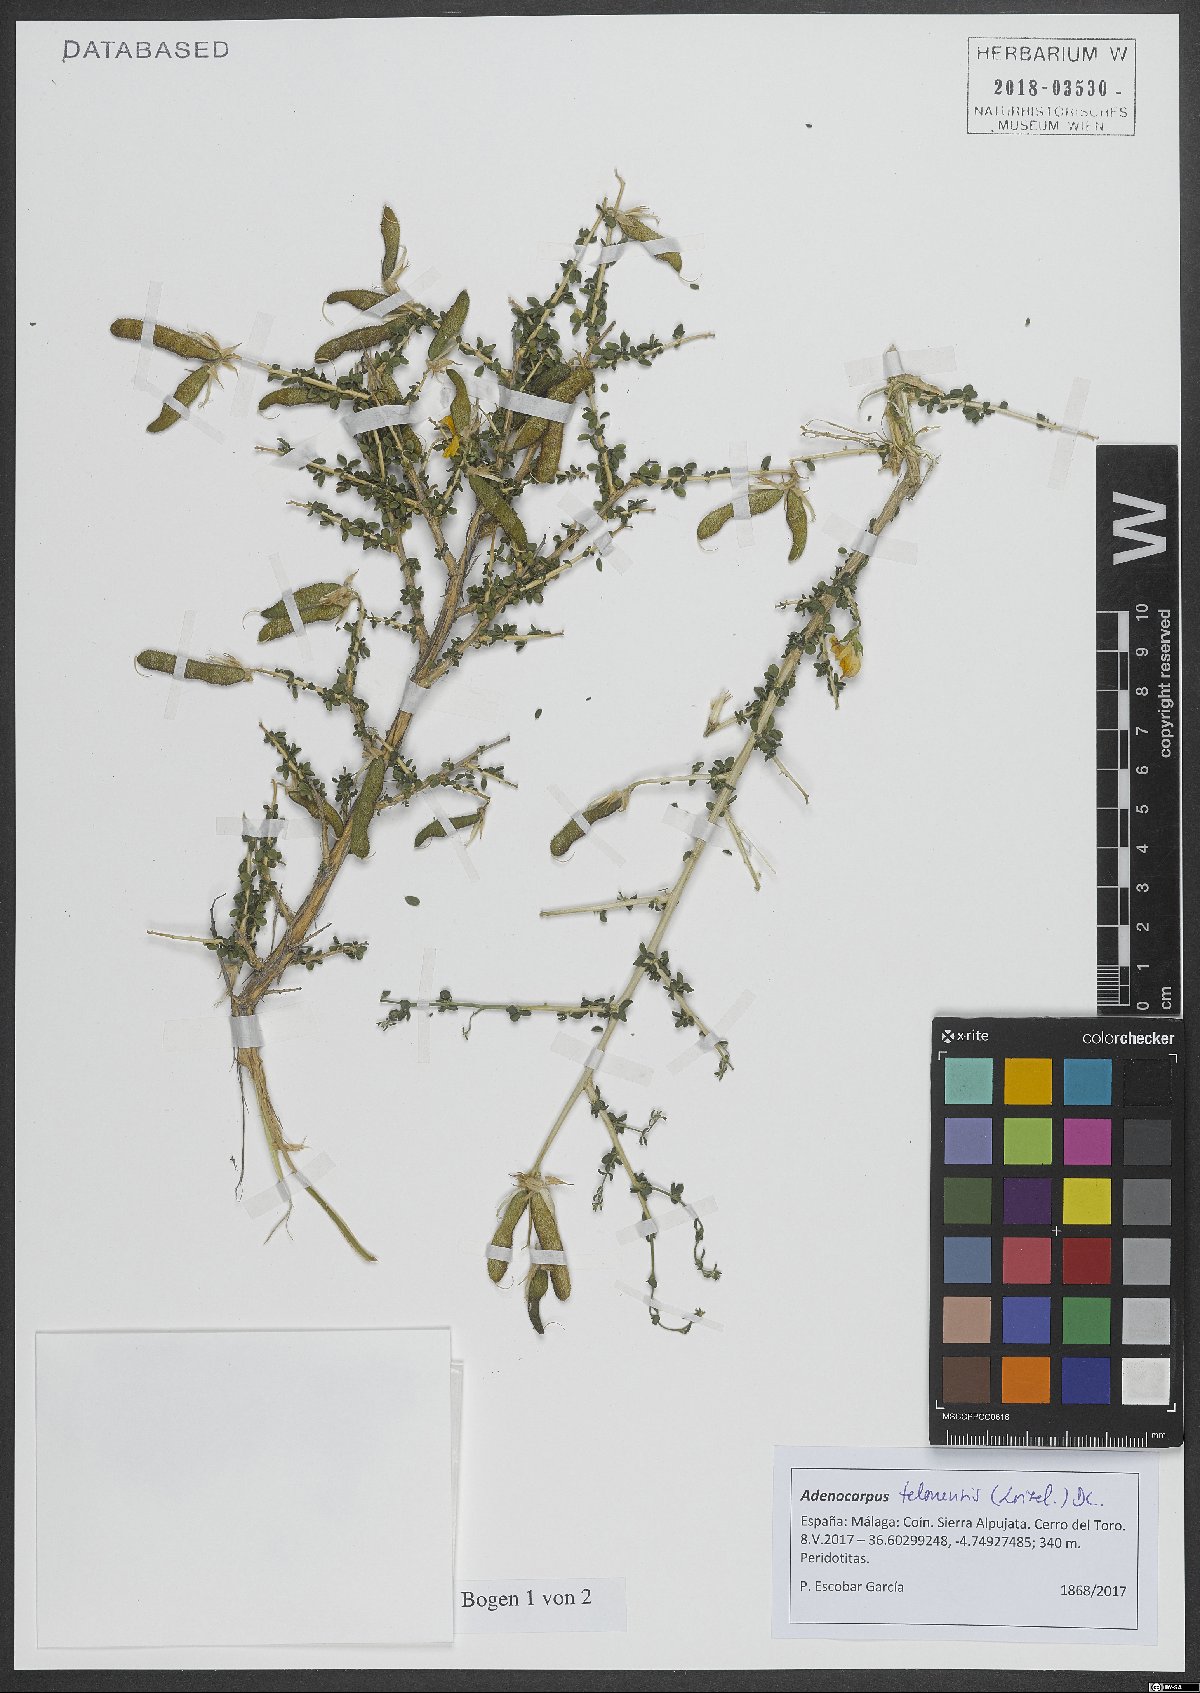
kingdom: Plantae
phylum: Tracheophyta
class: Magnoliopsida
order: Fabales
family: Fabaceae
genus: Adenocarpus
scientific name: Adenocarpus telonensis
